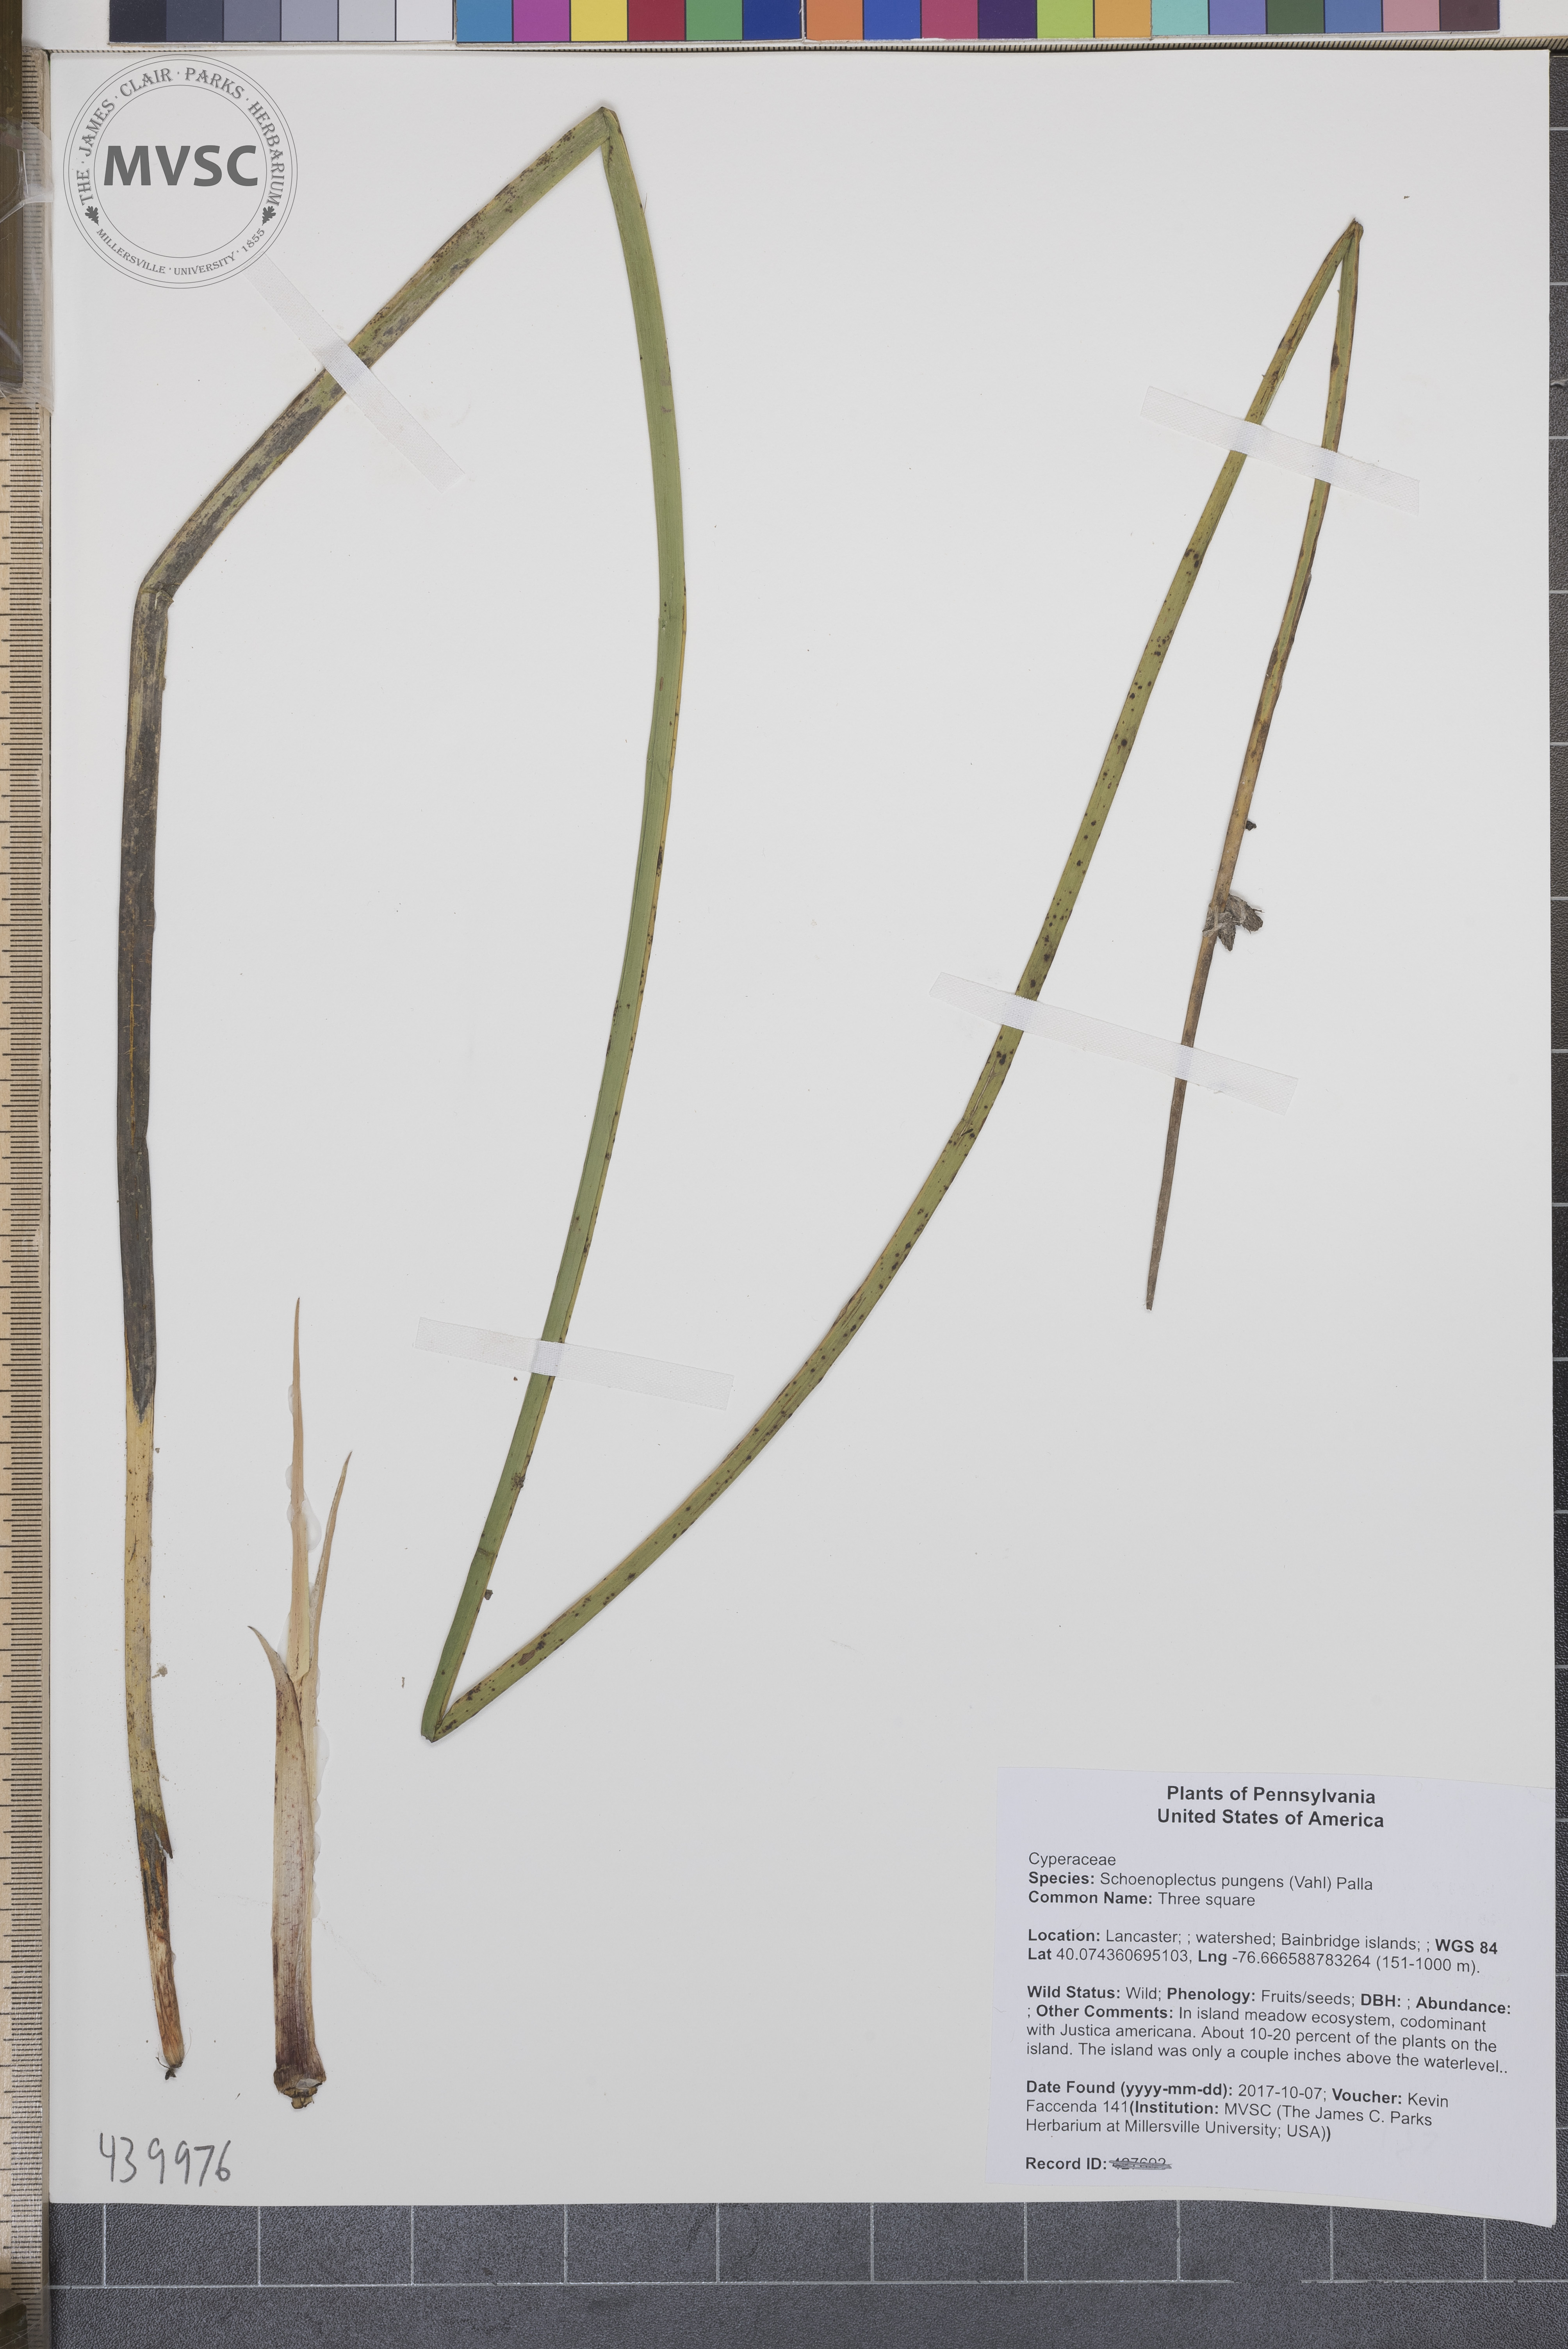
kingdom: Plantae
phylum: Tracheophyta
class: Liliopsida
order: Poales
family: Cyperaceae
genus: Schoenoplectus
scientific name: Schoenoplectus pungens
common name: Three square
